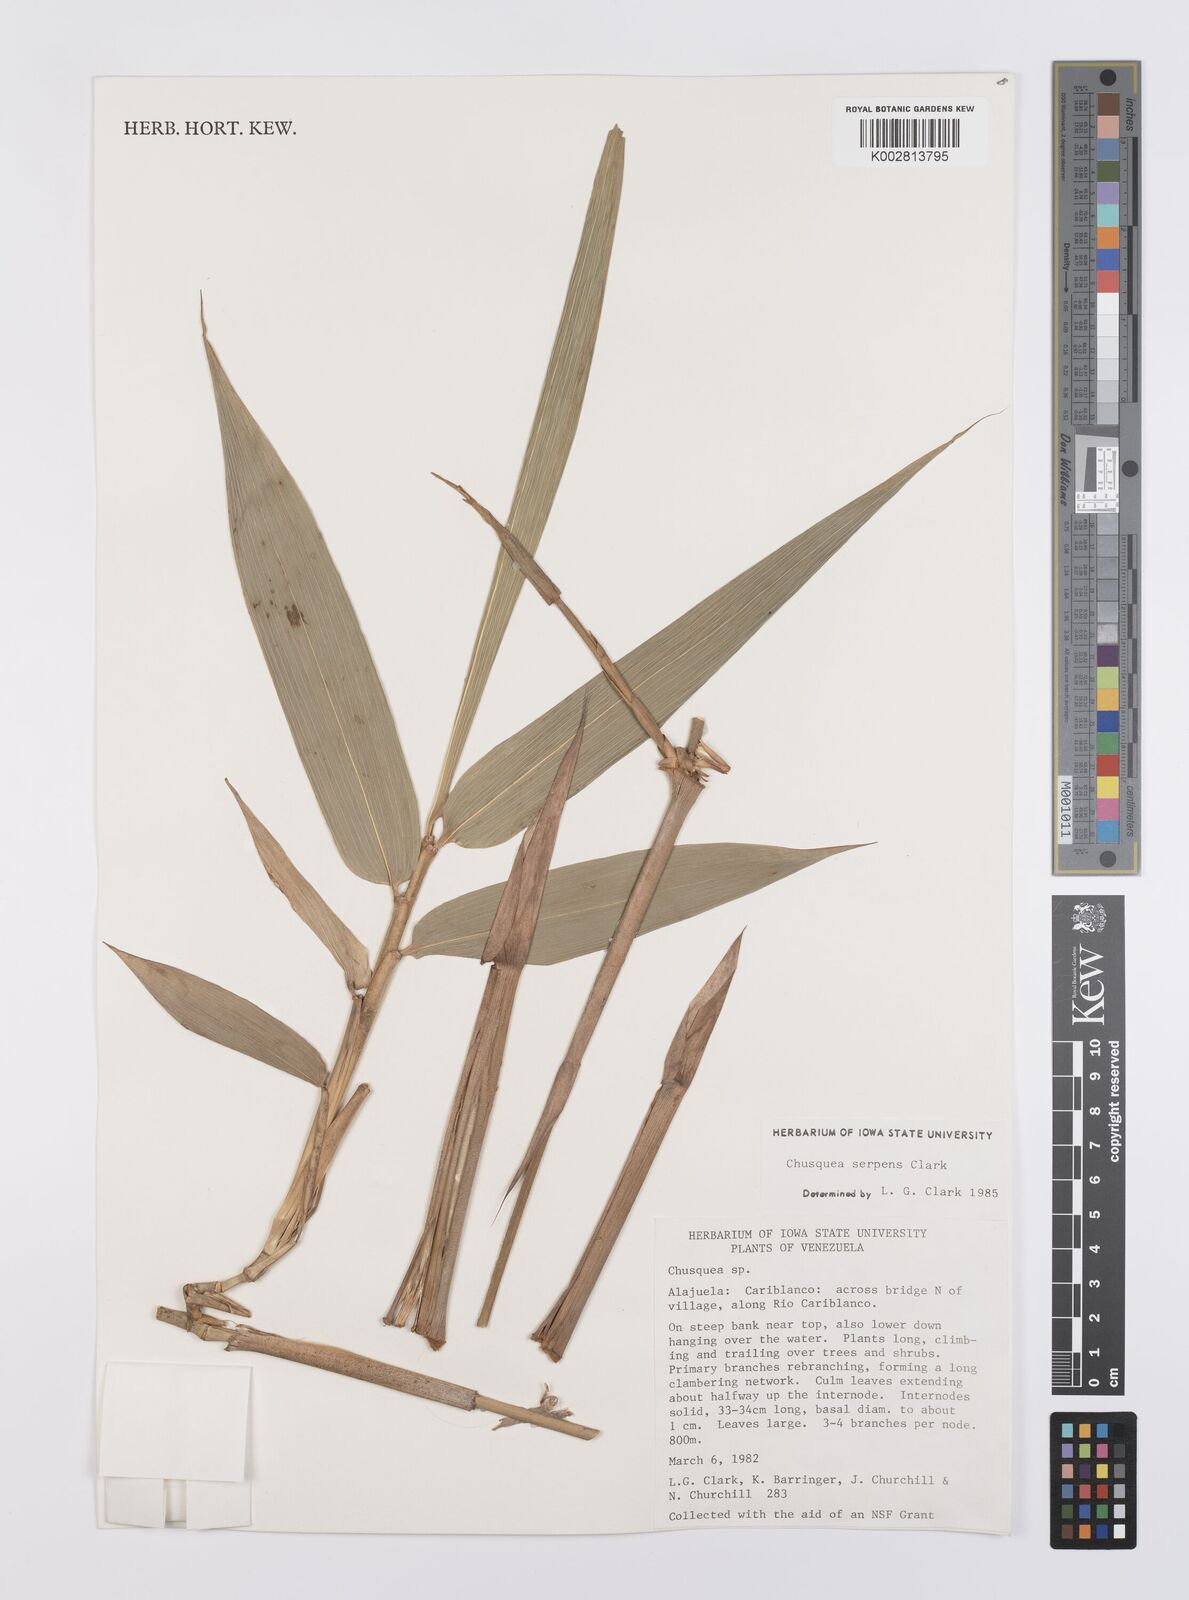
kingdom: Plantae
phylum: Tracheophyta
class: Liliopsida
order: Poales
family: Poaceae
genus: Chusquea
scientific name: Chusquea serpens
